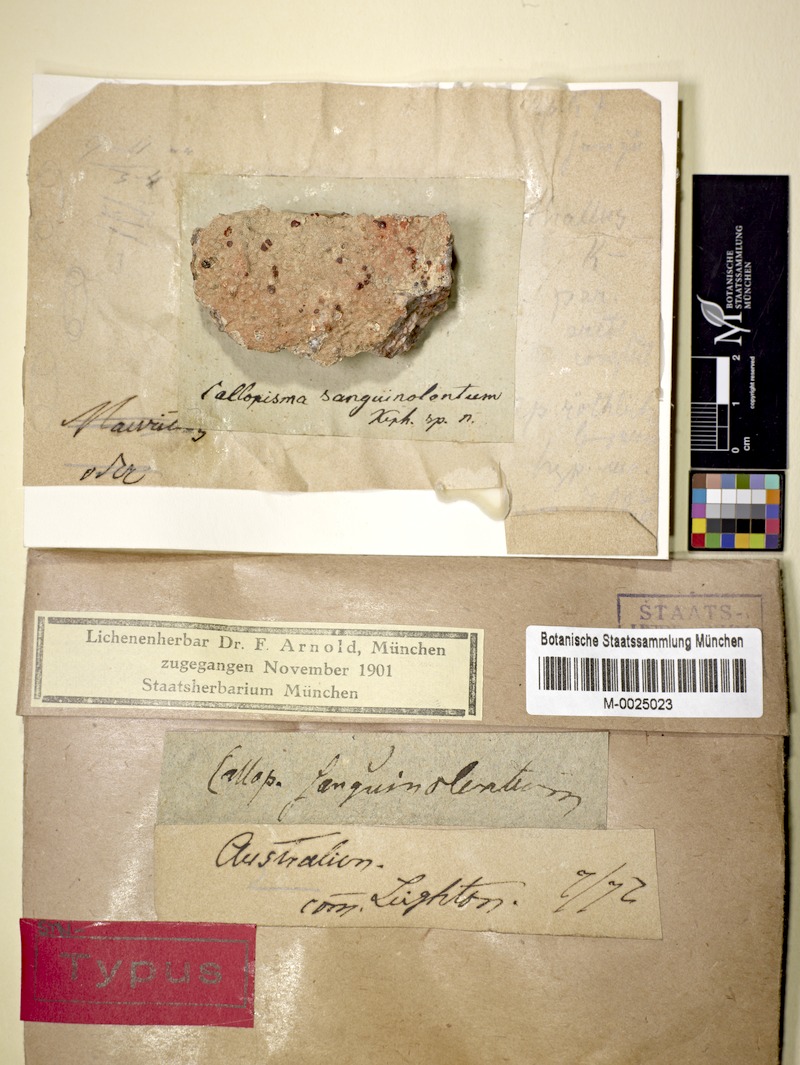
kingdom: Fungi
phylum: Ascomycota
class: Lecanoromycetes
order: Lecanorales
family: Ramboldiaceae
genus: Ramboldia
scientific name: Ramboldia sanguinolenta
